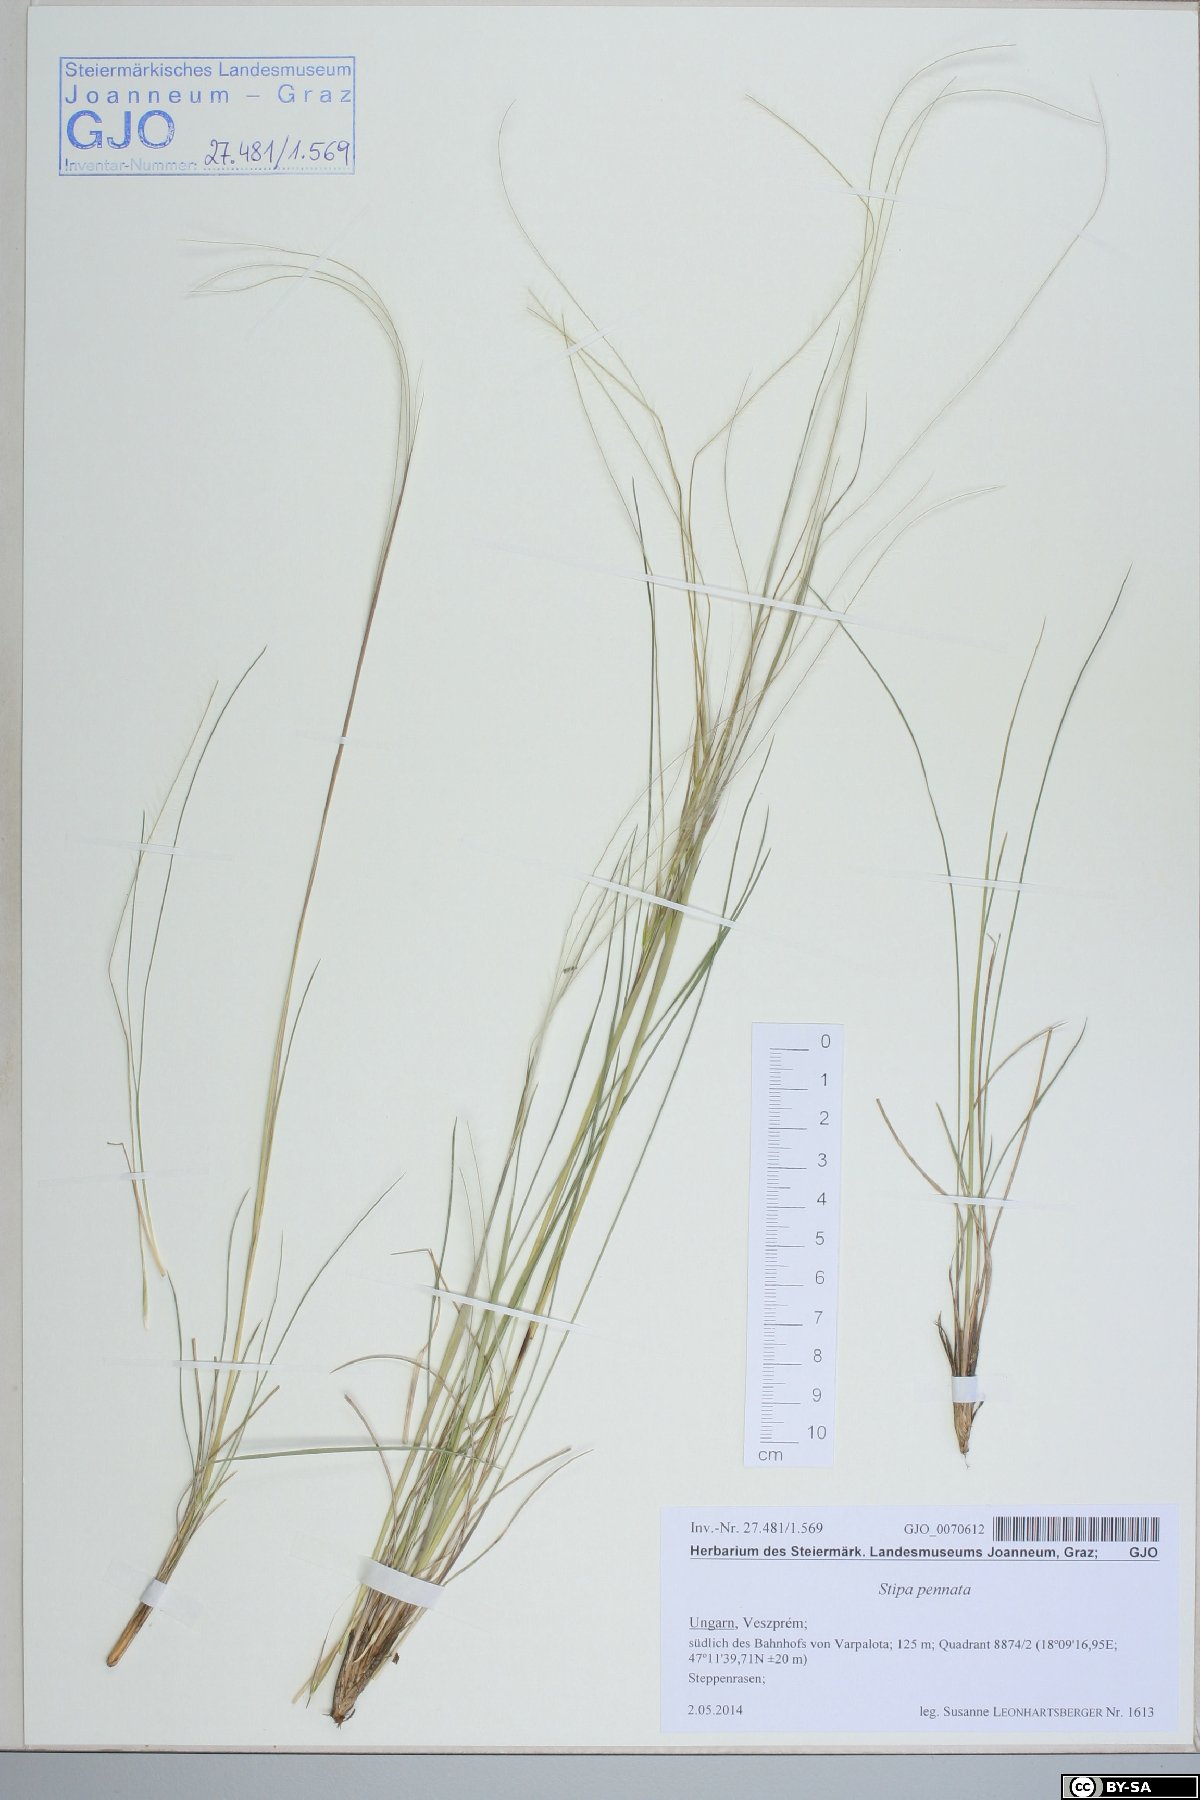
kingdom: Plantae
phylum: Tracheophyta
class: Liliopsida
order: Poales
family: Poaceae
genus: Stipa
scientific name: Stipa pennata
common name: European feather grass
